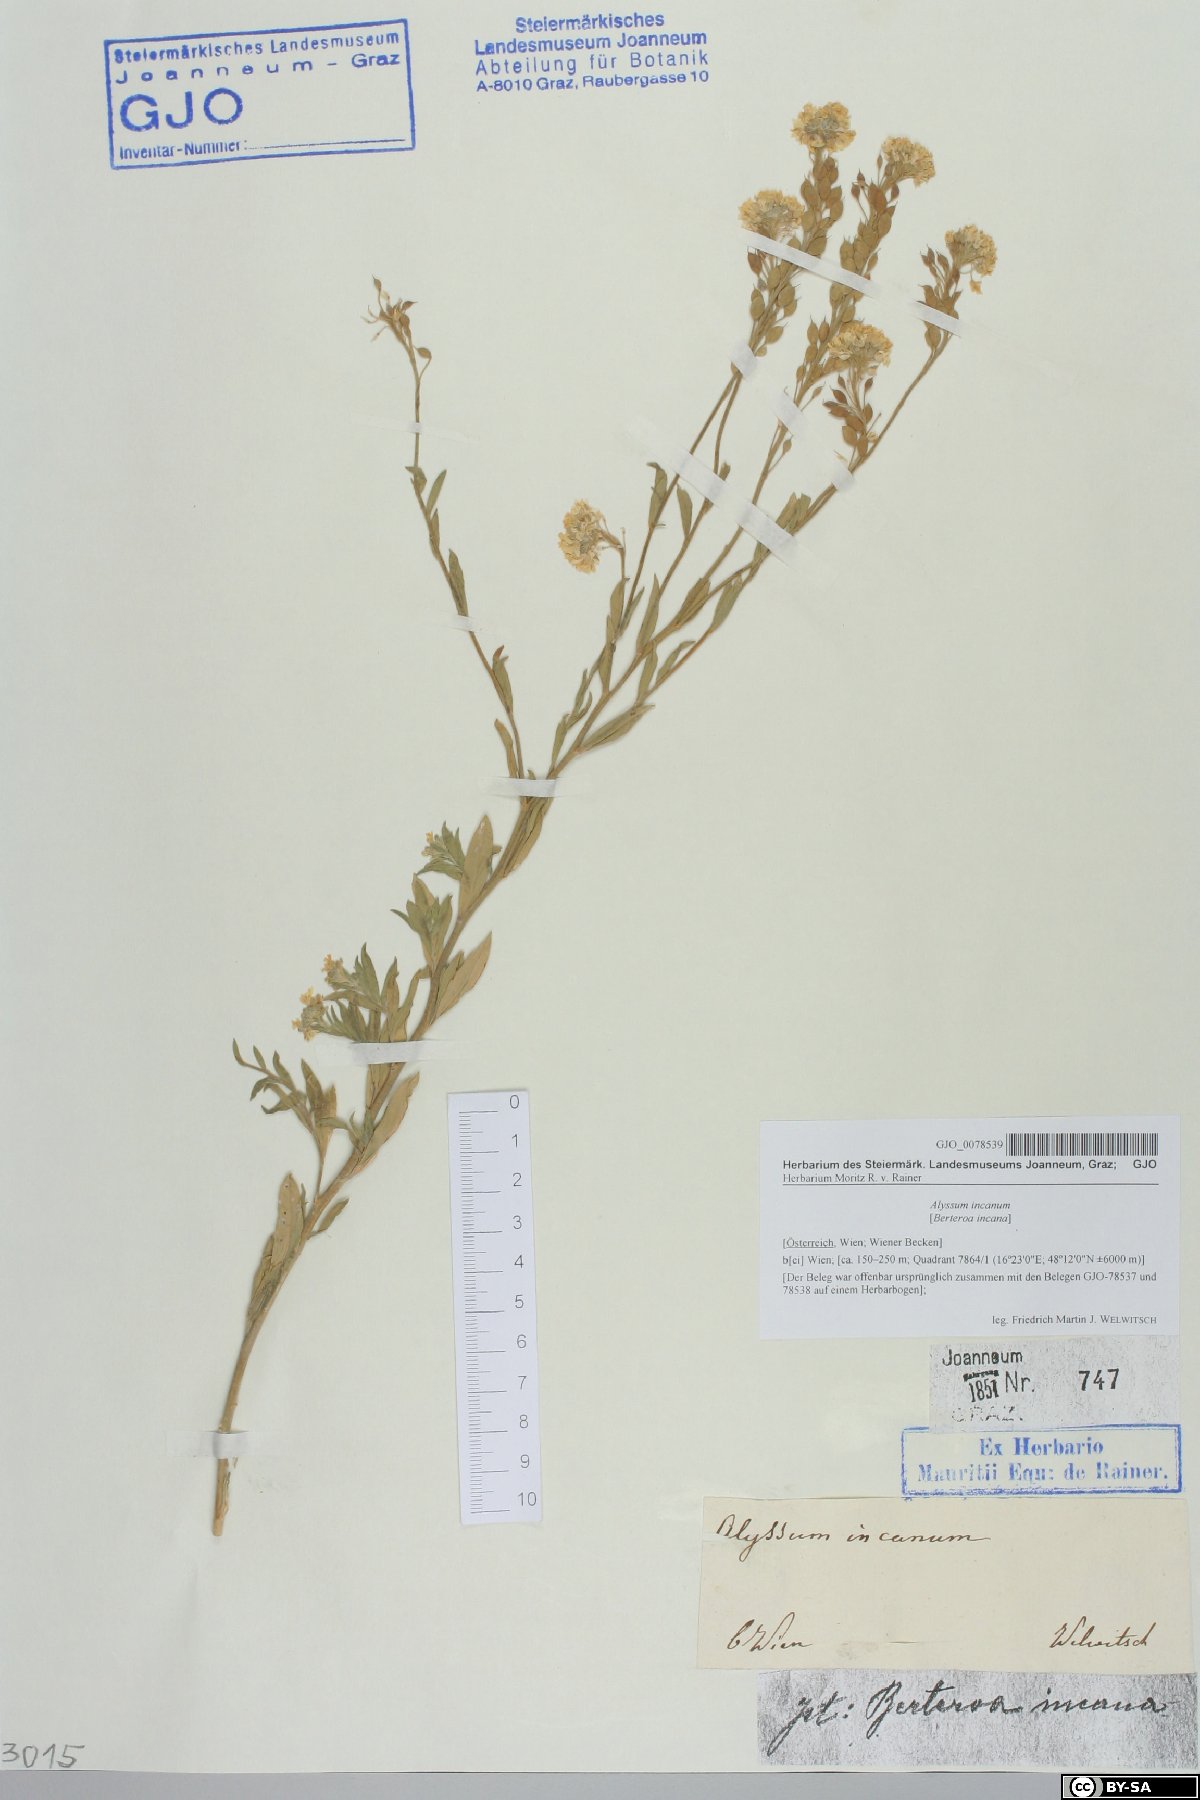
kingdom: Plantae
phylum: Tracheophyta
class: Magnoliopsida
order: Brassicales
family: Brassicaceae
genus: Berteroa
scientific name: Berteroa incana
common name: Hoary alison
